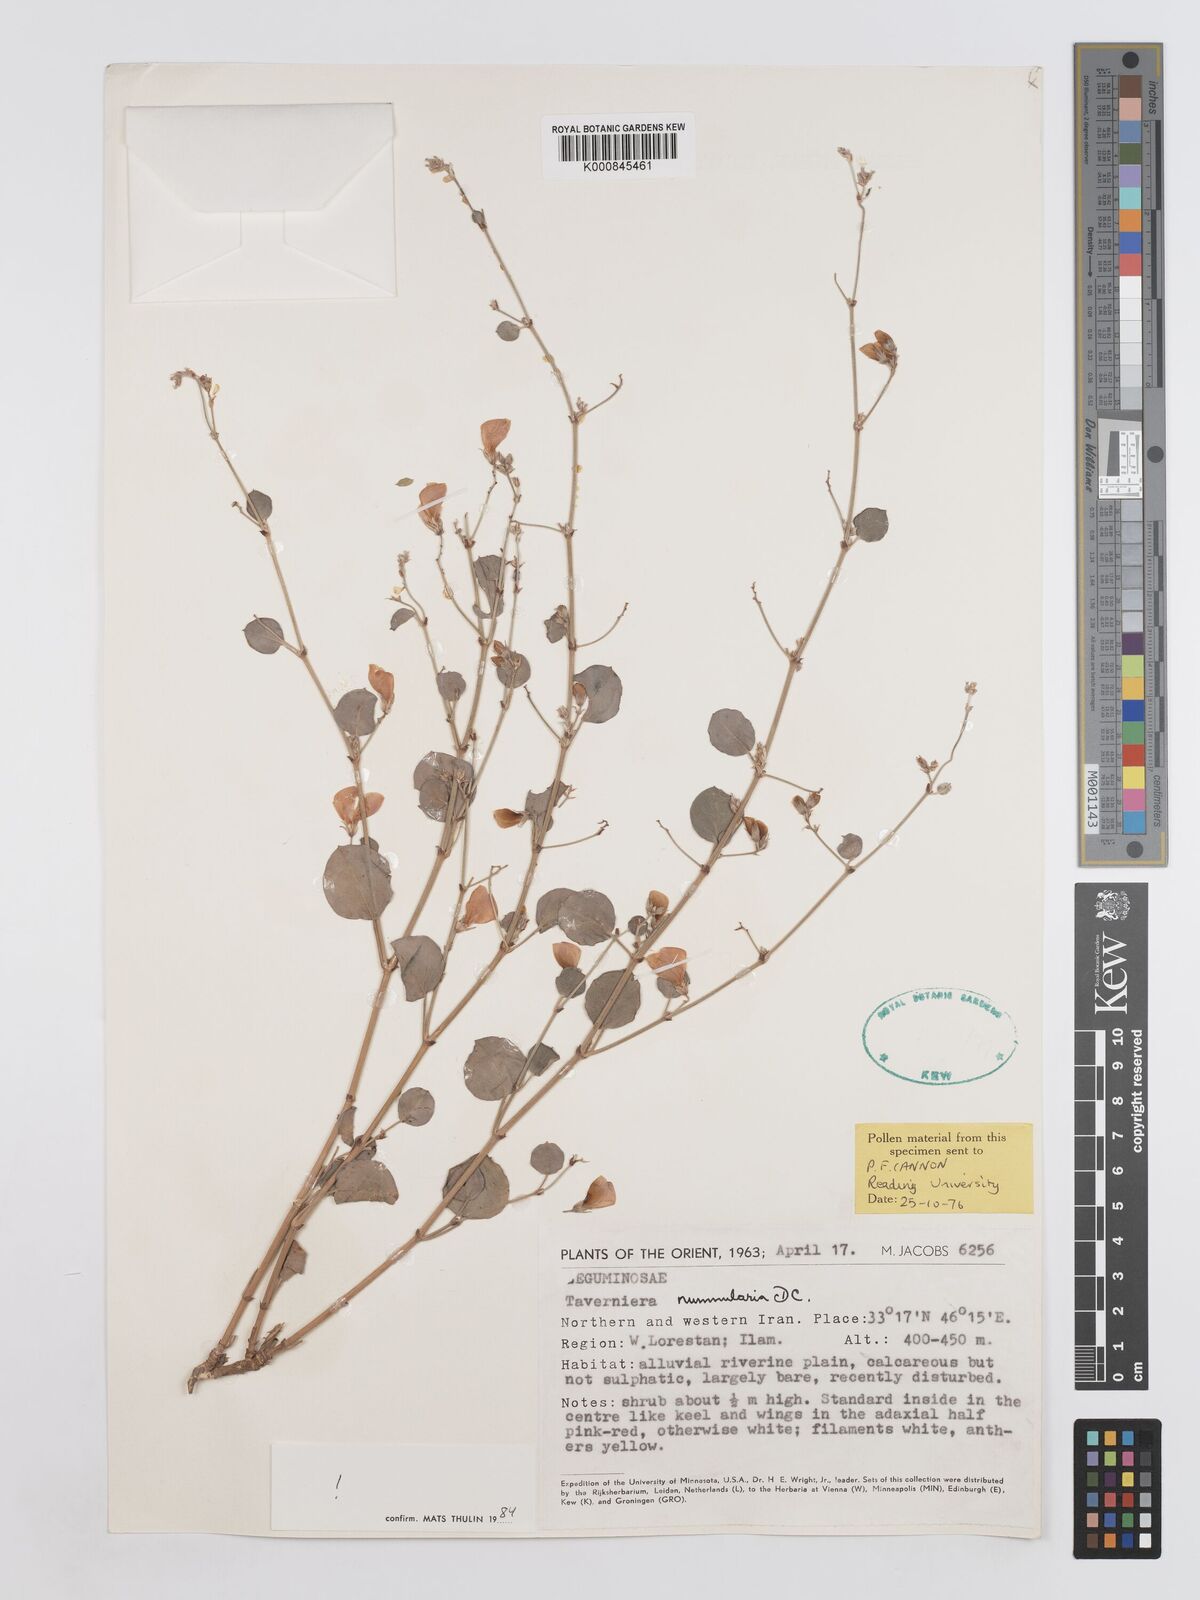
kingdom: Plantae
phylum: Tracheophyta
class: Magnoliopsida
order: Fabales
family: Fabaceae
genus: Taverniera
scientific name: Taverniera nummularia
